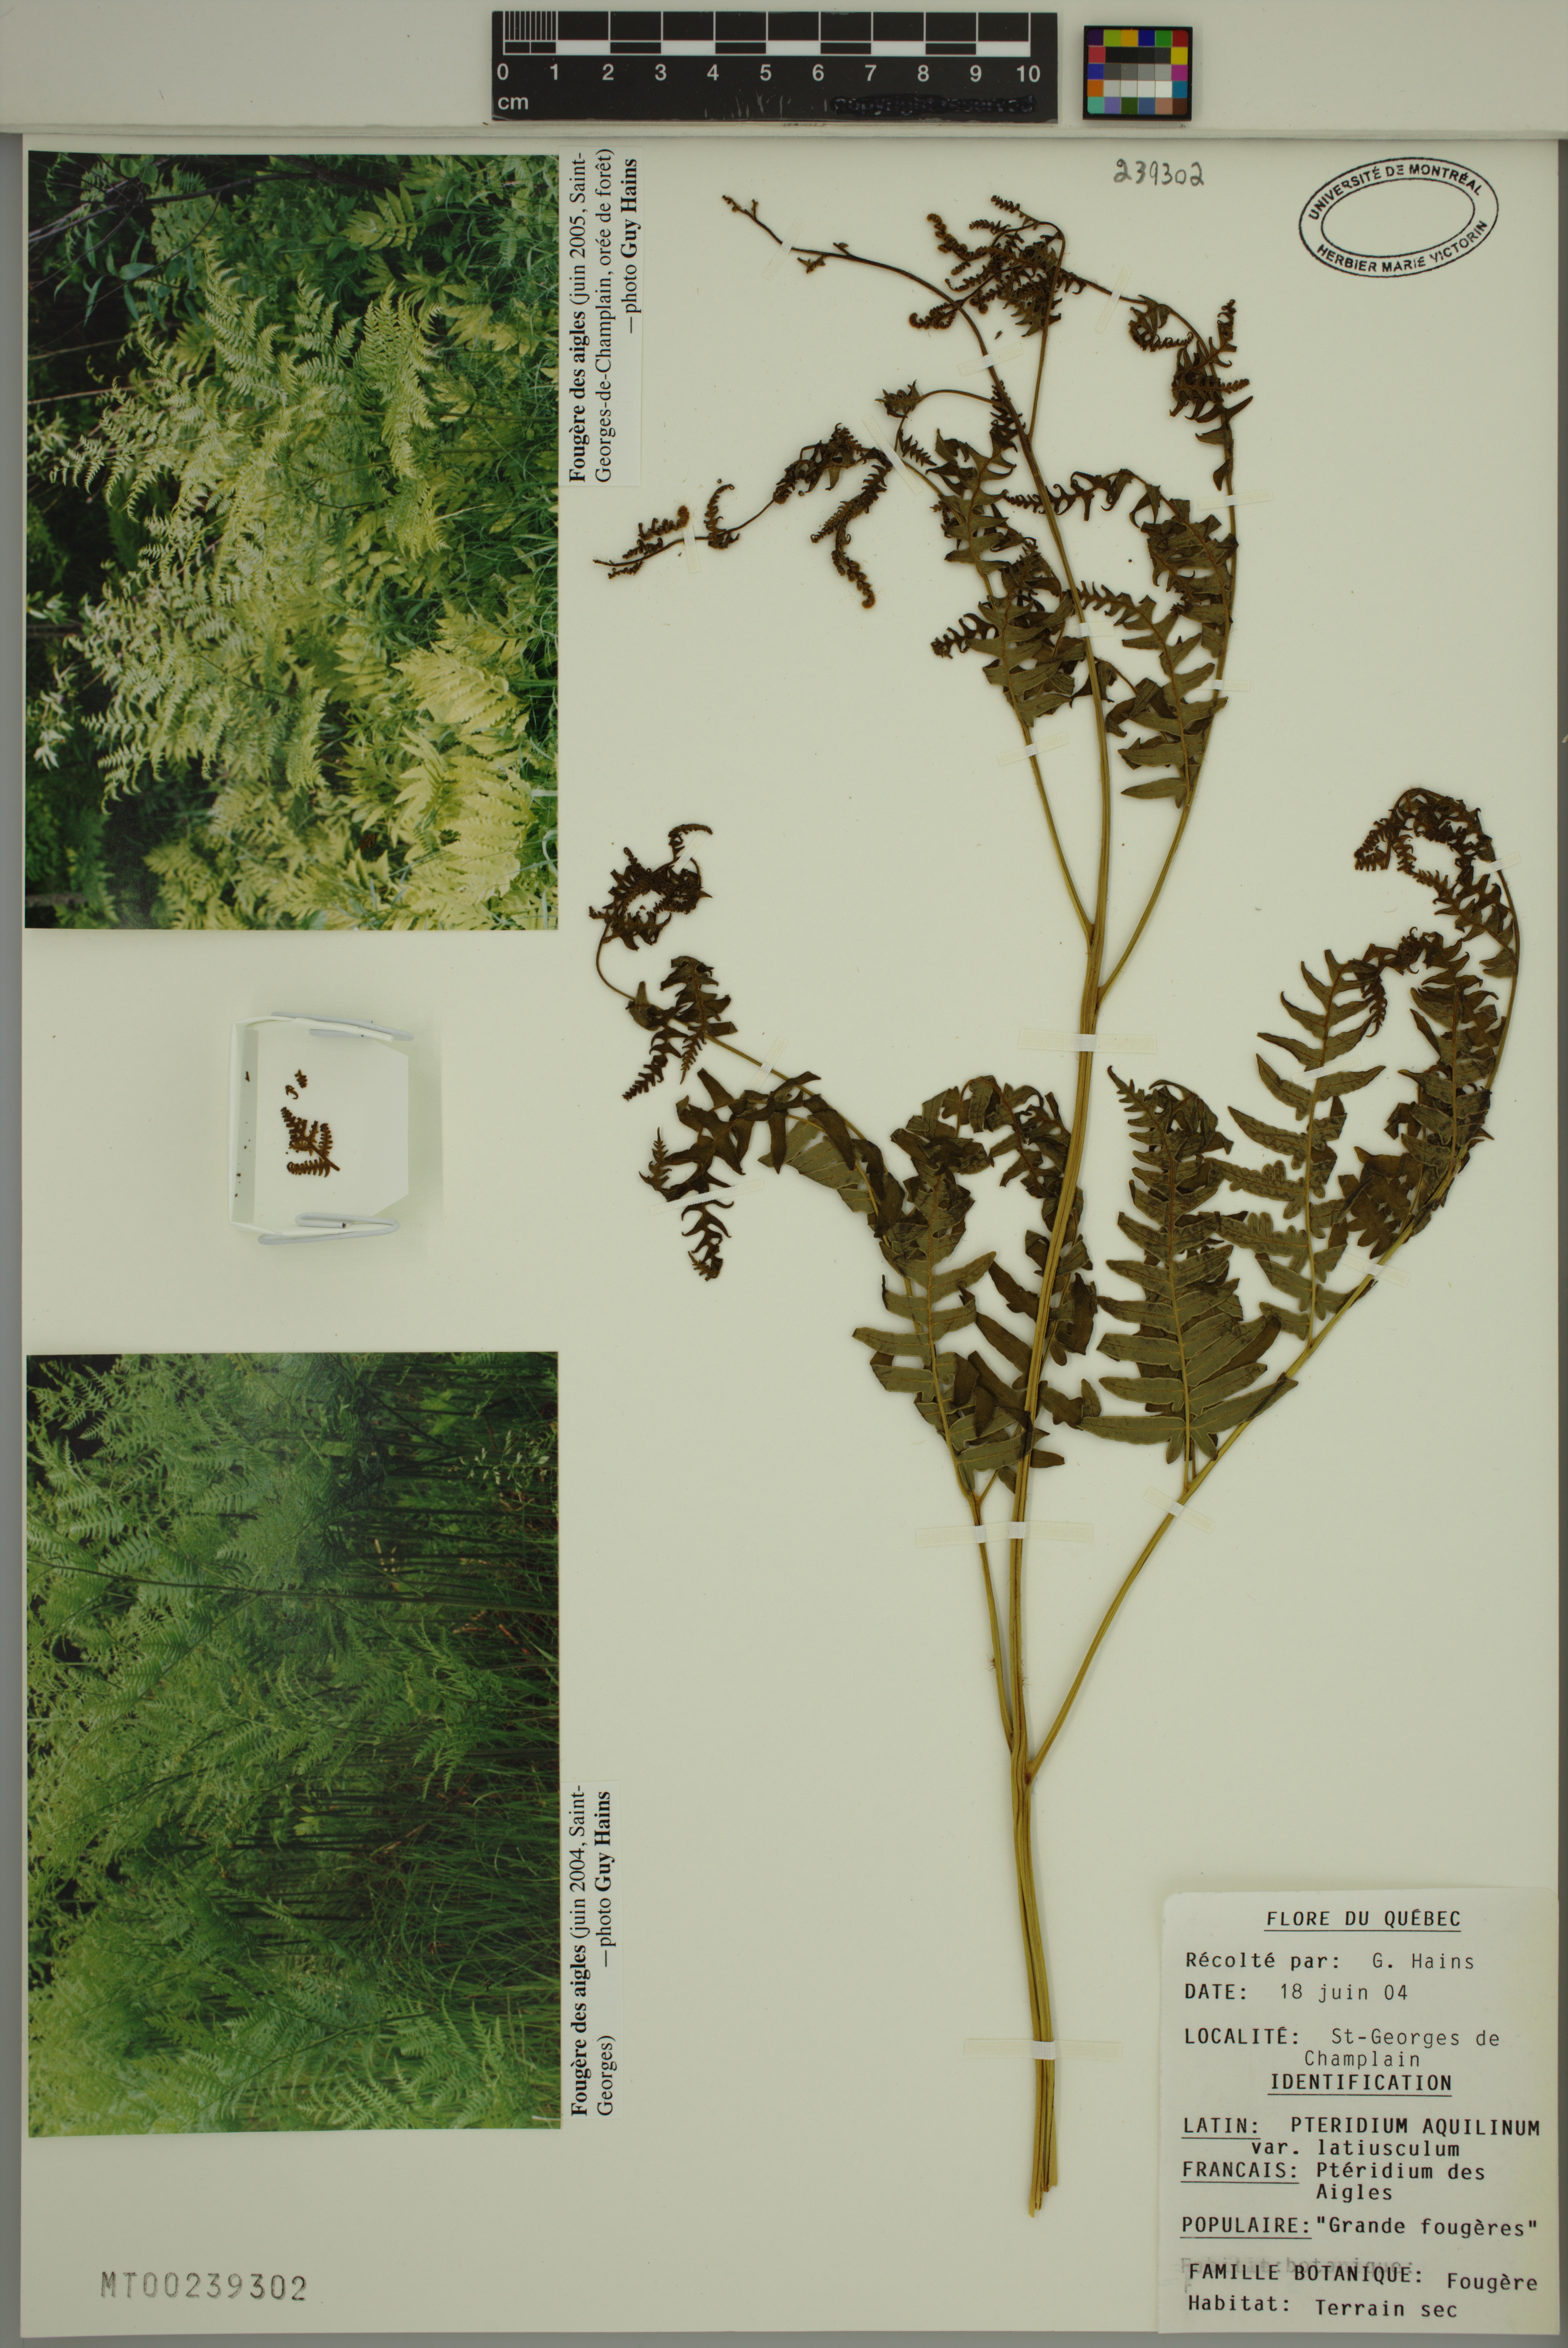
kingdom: Plantae
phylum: Tracheophyta
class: Polypodiopsida
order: Polypodiales
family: Dennstaedtiaceae
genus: Pteridium
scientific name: Pteridium aquilinum
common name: Bracken
